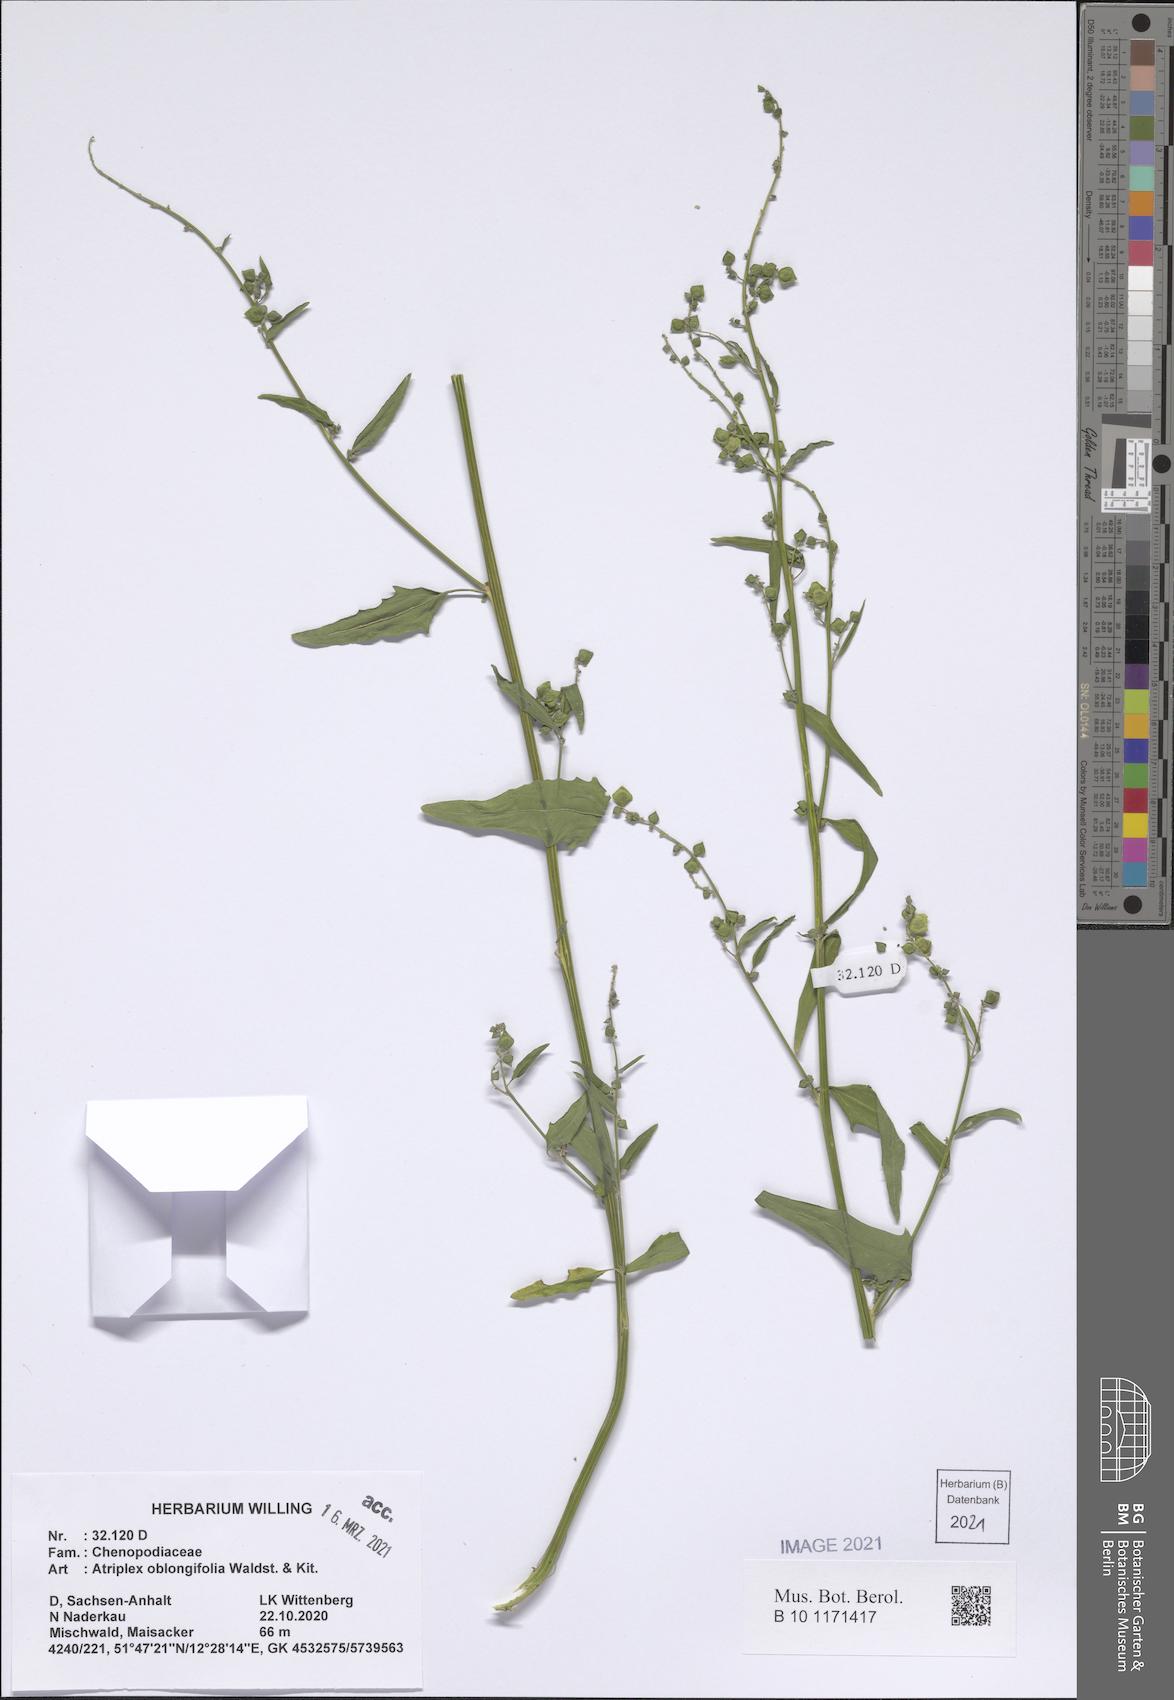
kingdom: Plantae
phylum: Tracheophyta
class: Magnoliopsida
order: Caryophyllales
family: Amaranthaceae
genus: Atriplex
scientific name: Atriplex oblongifolia
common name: Oblongleaf orache
